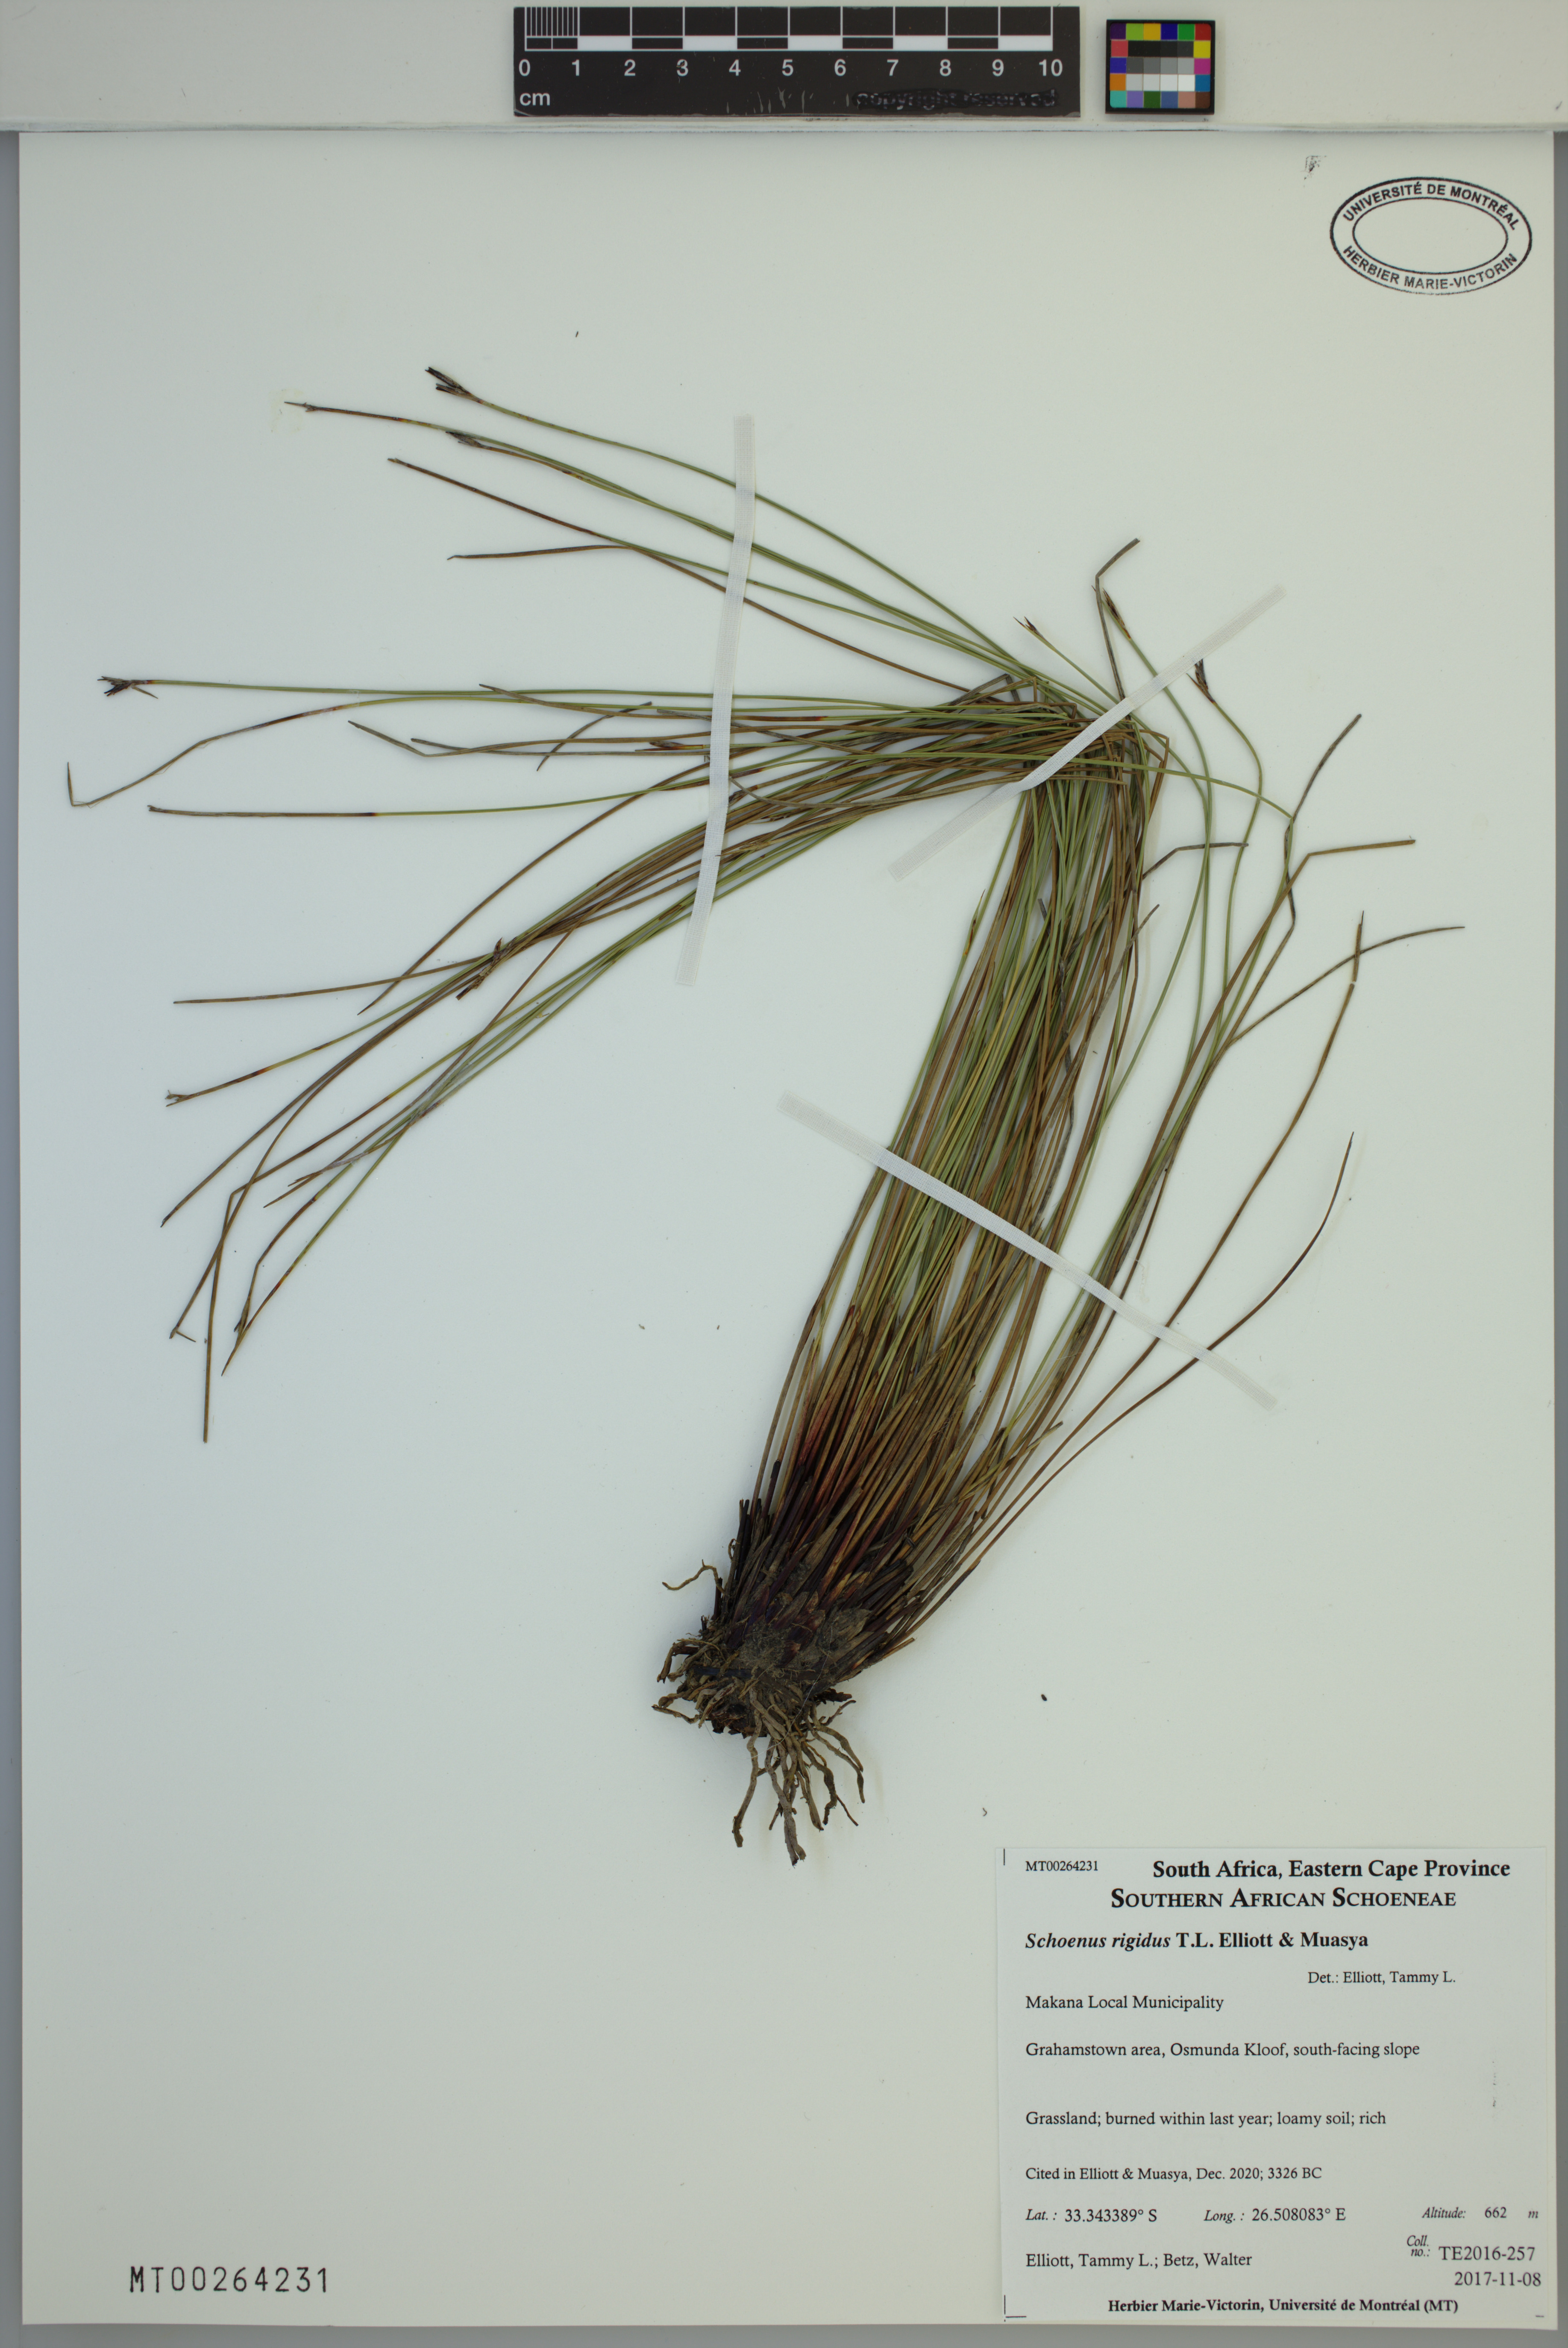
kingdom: Plantae
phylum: Tracheophyta
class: Liliopsida
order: Poales
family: Cyperaceae
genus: Schoenus
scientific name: Schoenus rigidus
